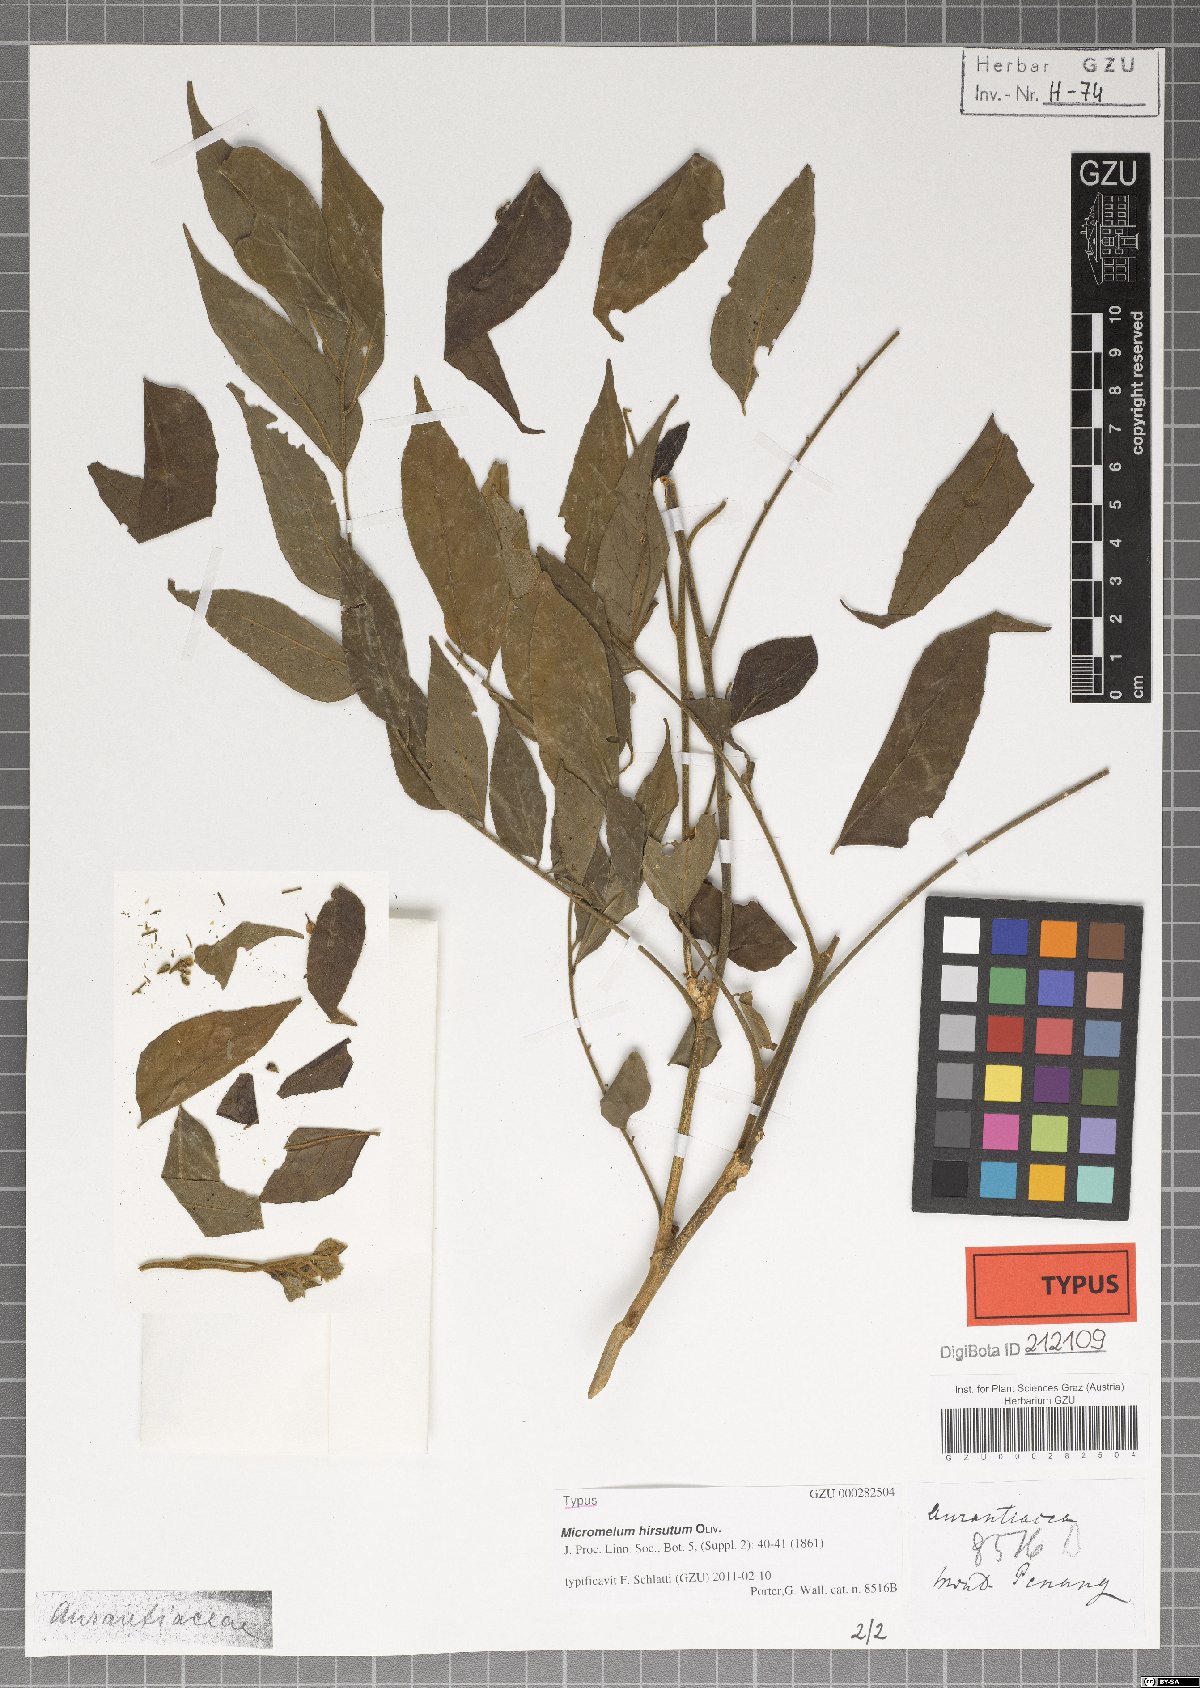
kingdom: Plantae
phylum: Tracheophyta
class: Magnoliopsida
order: Sapindales
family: Rutaceae
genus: Micromelum
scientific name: Micromelum hirsutum
